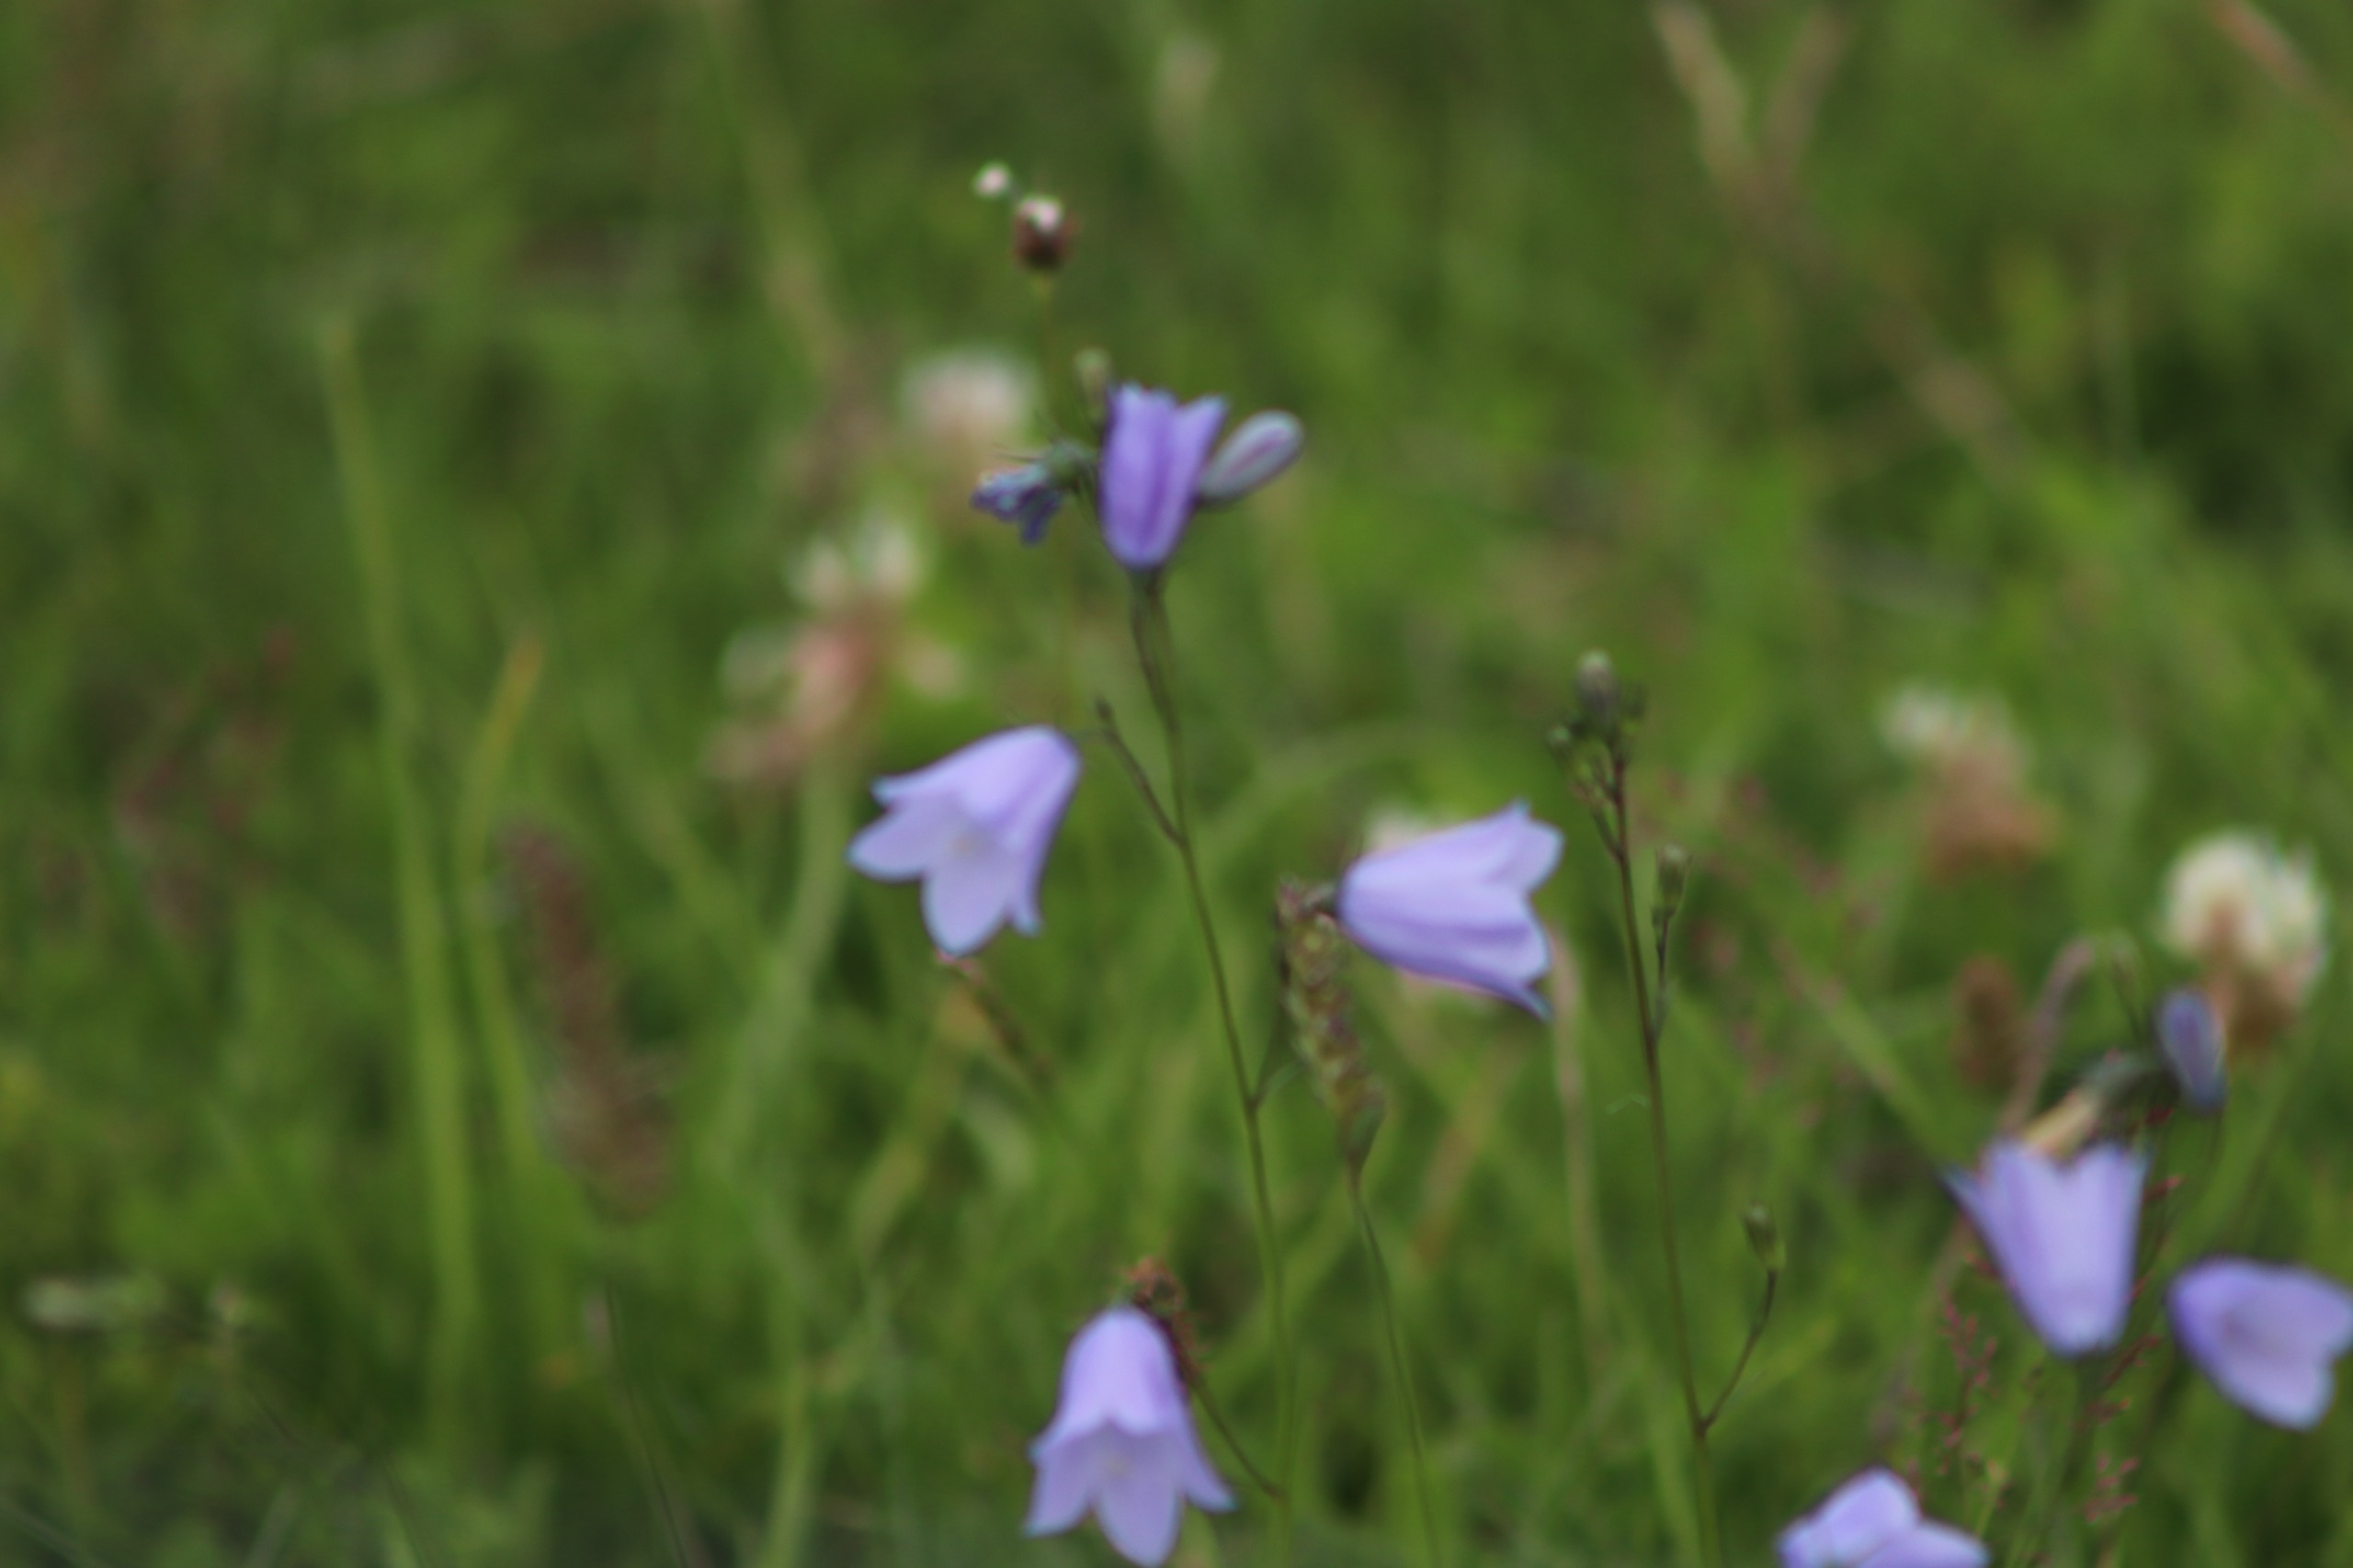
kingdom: Plantae
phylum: Tracheophyta
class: Magnoliopsida
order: Asterales
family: Campanulaceae
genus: Campanula
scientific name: Campanula rotundifolia
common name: Liden klokke
